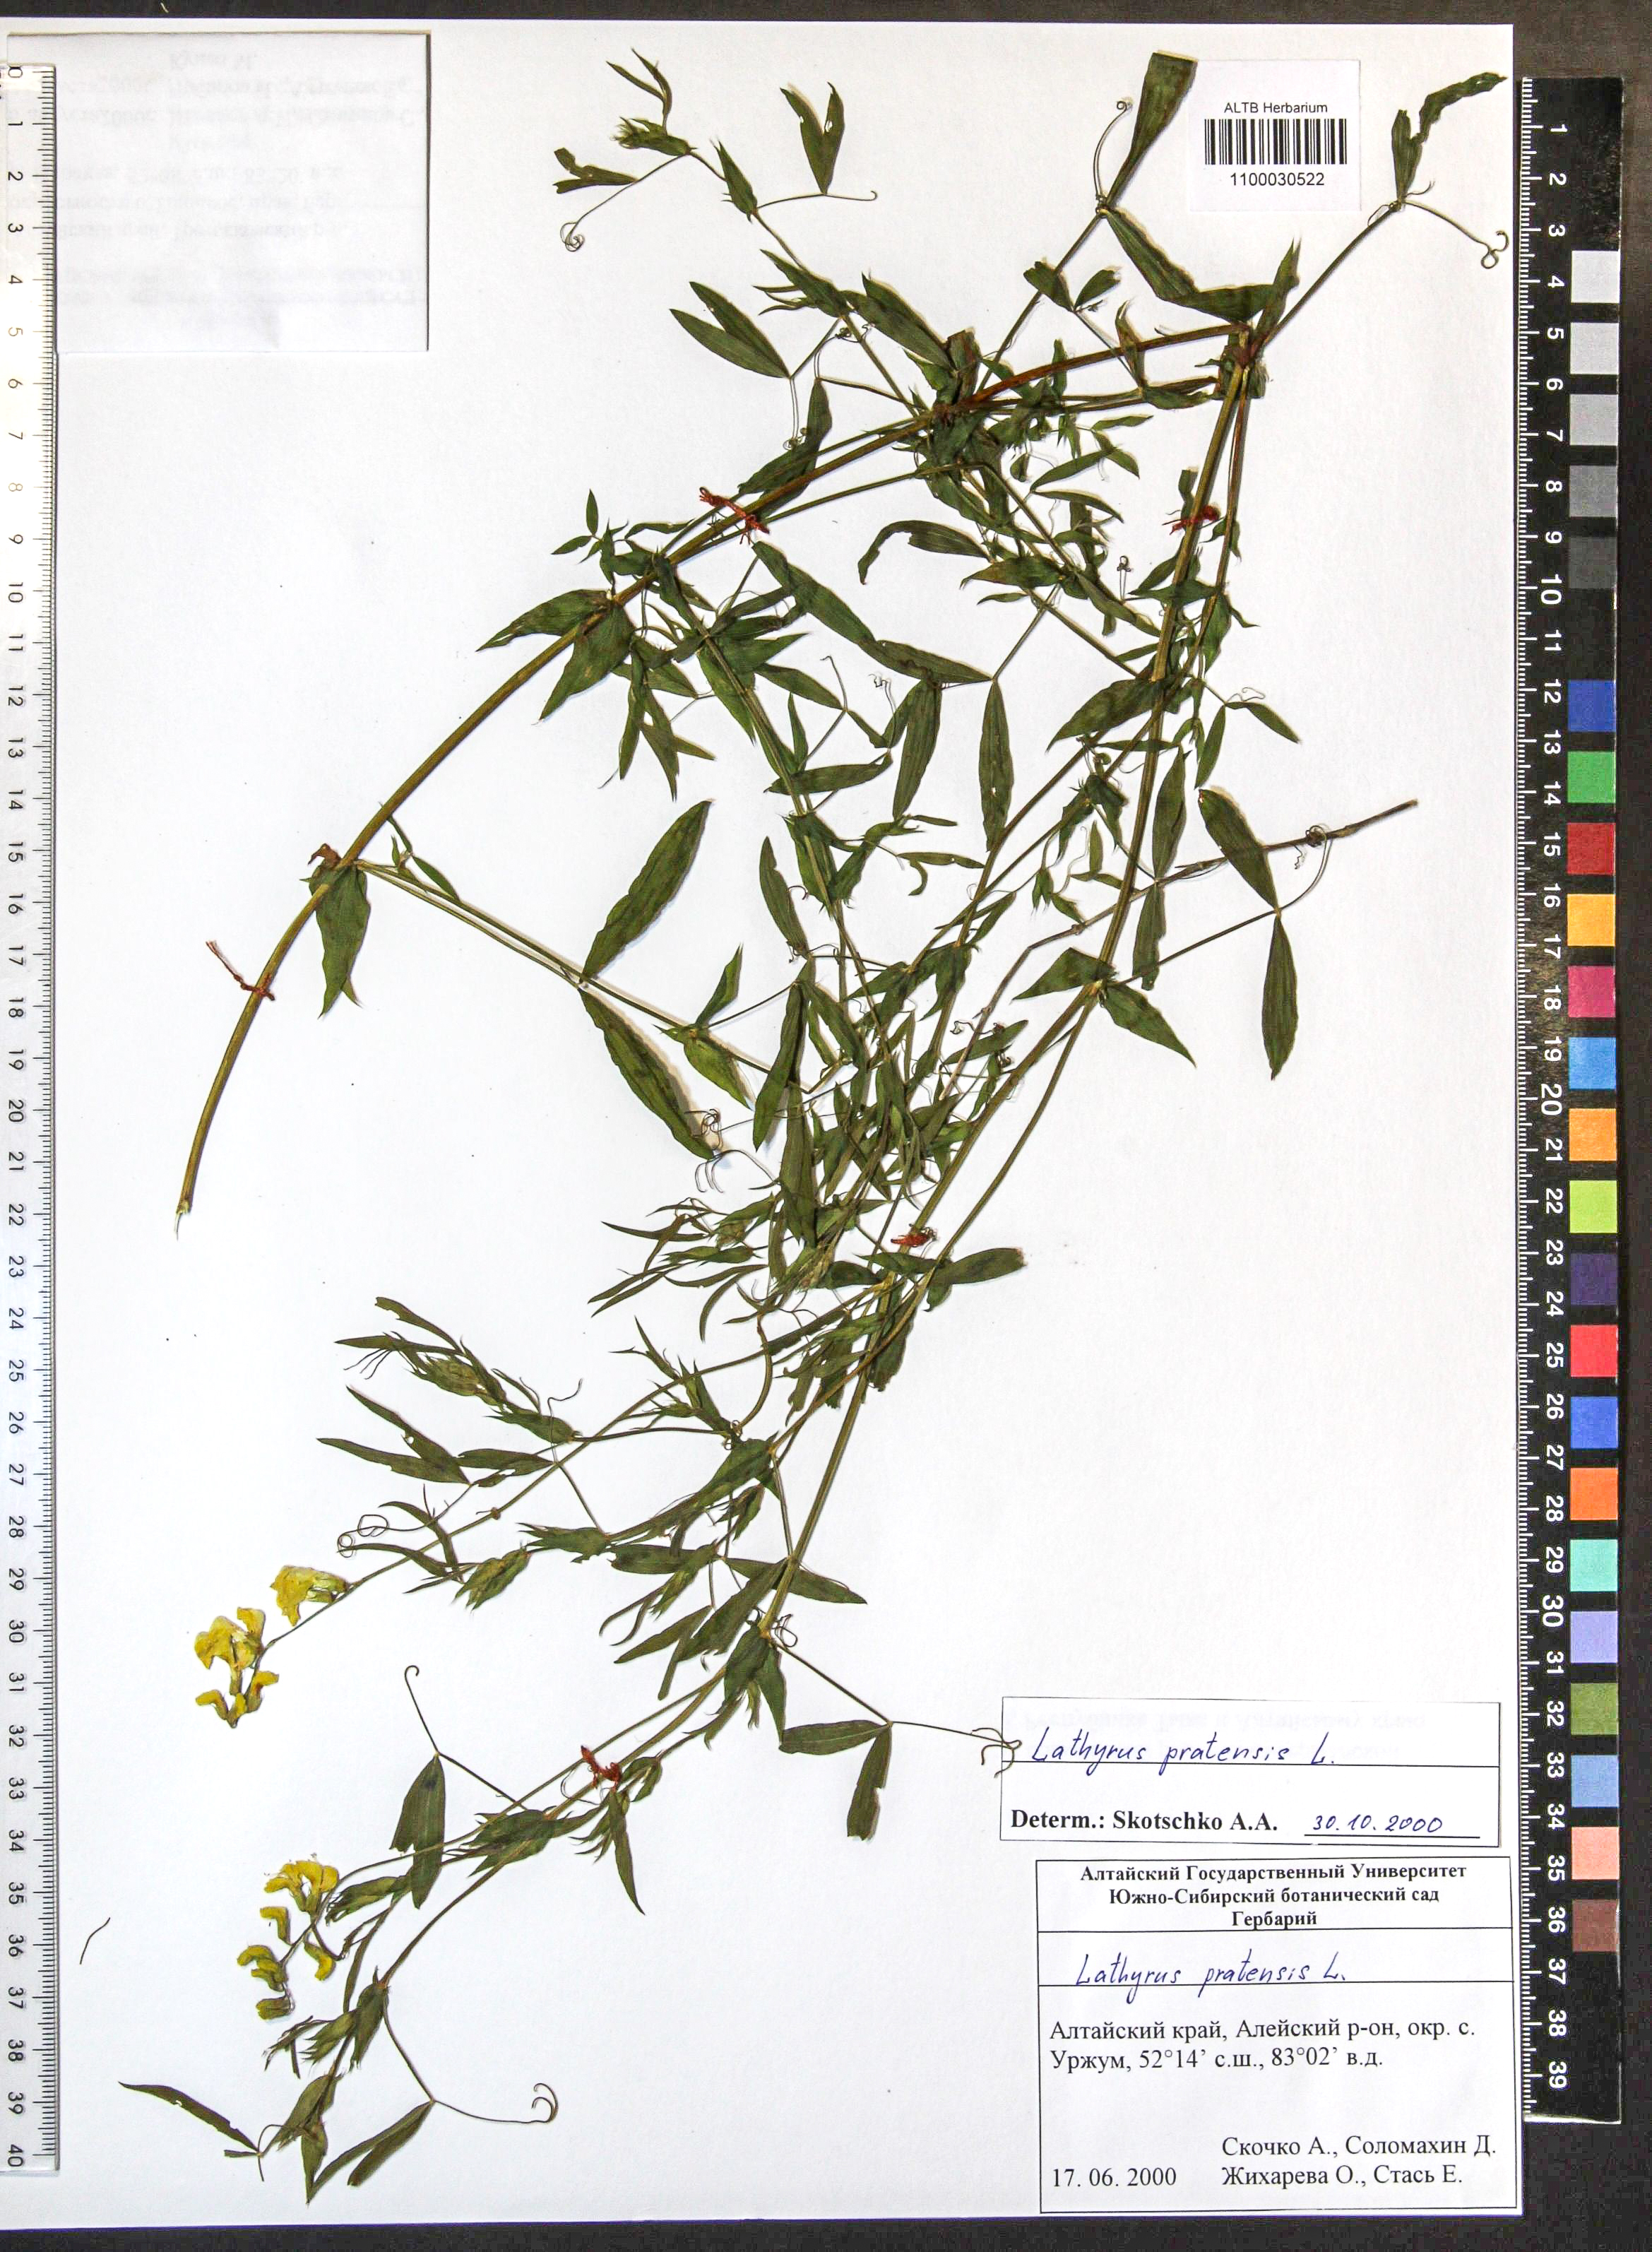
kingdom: Plantae
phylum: Tracheophyta
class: Magnoliopsida
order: Fabales
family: Fabaceae
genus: Lathyrus
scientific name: Lathyrus pratensis
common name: Meadow vetchling
